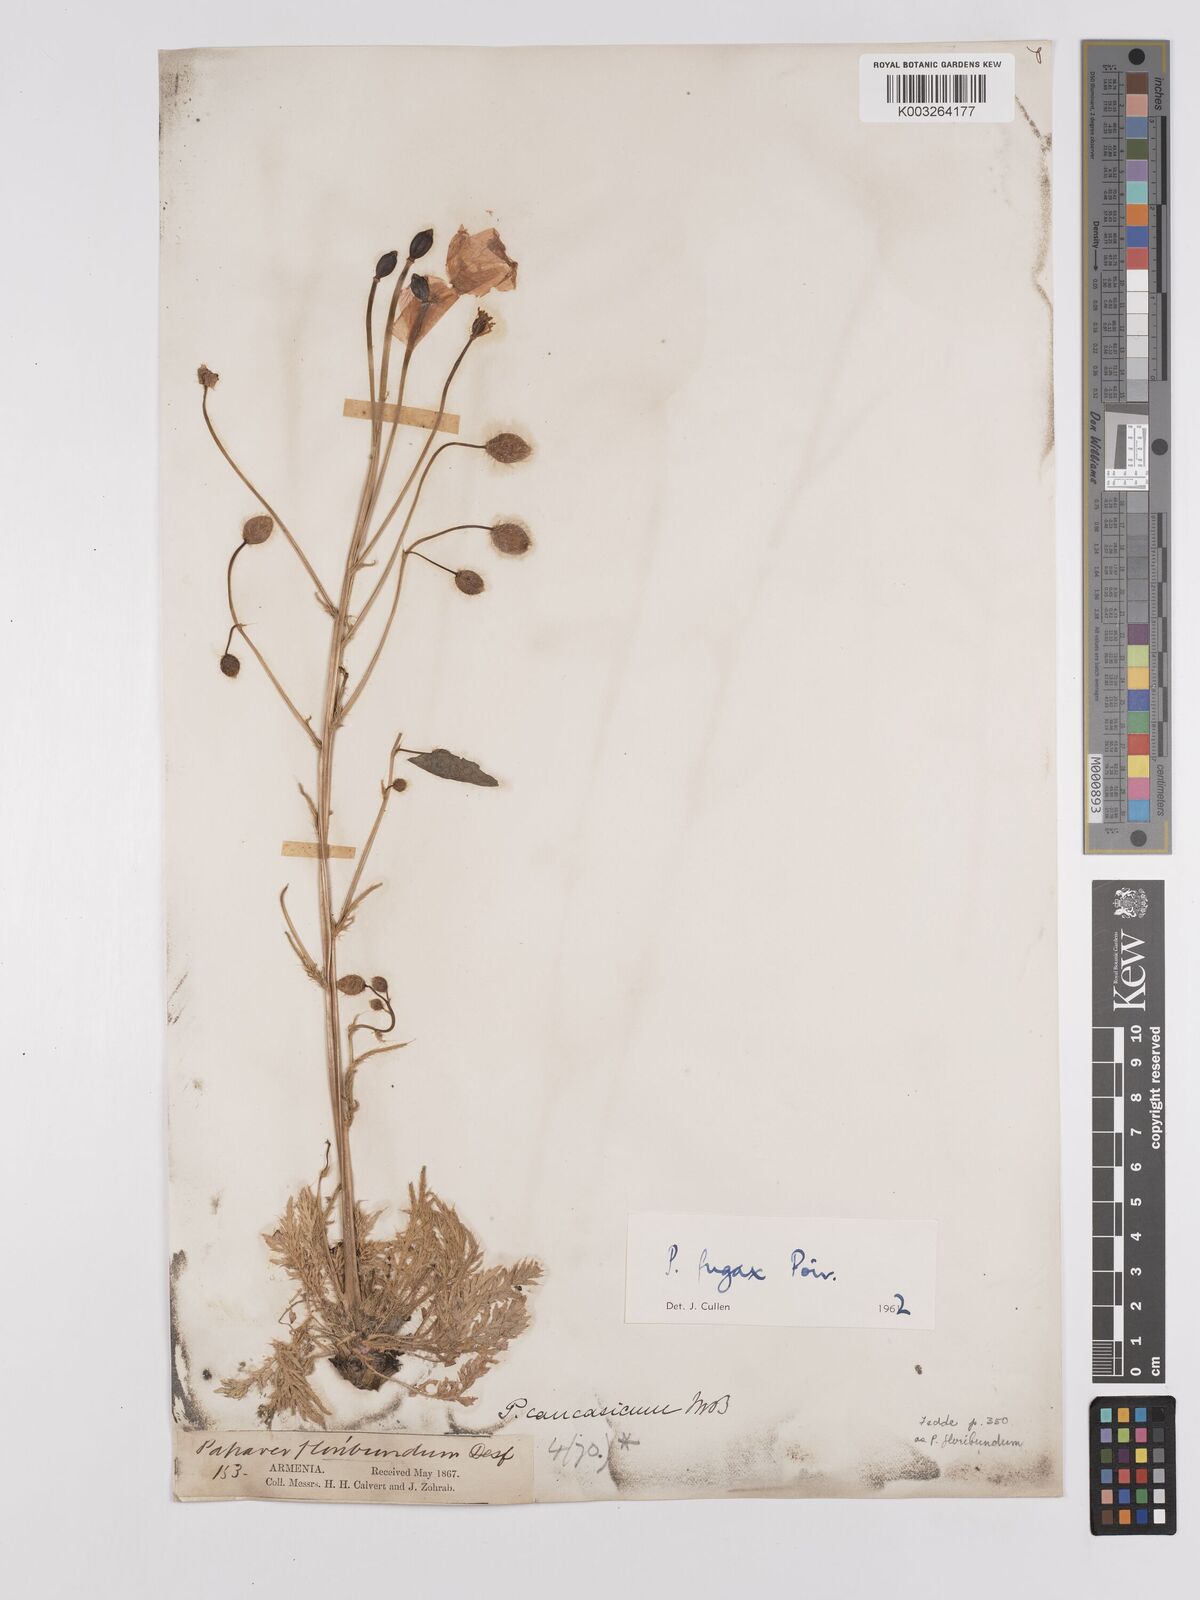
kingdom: Plantae
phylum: Tracheophyta
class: Magnoliopsida
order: Ranunculales
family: Papaveraceae
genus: Papaver
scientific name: Papaver armeniacum
